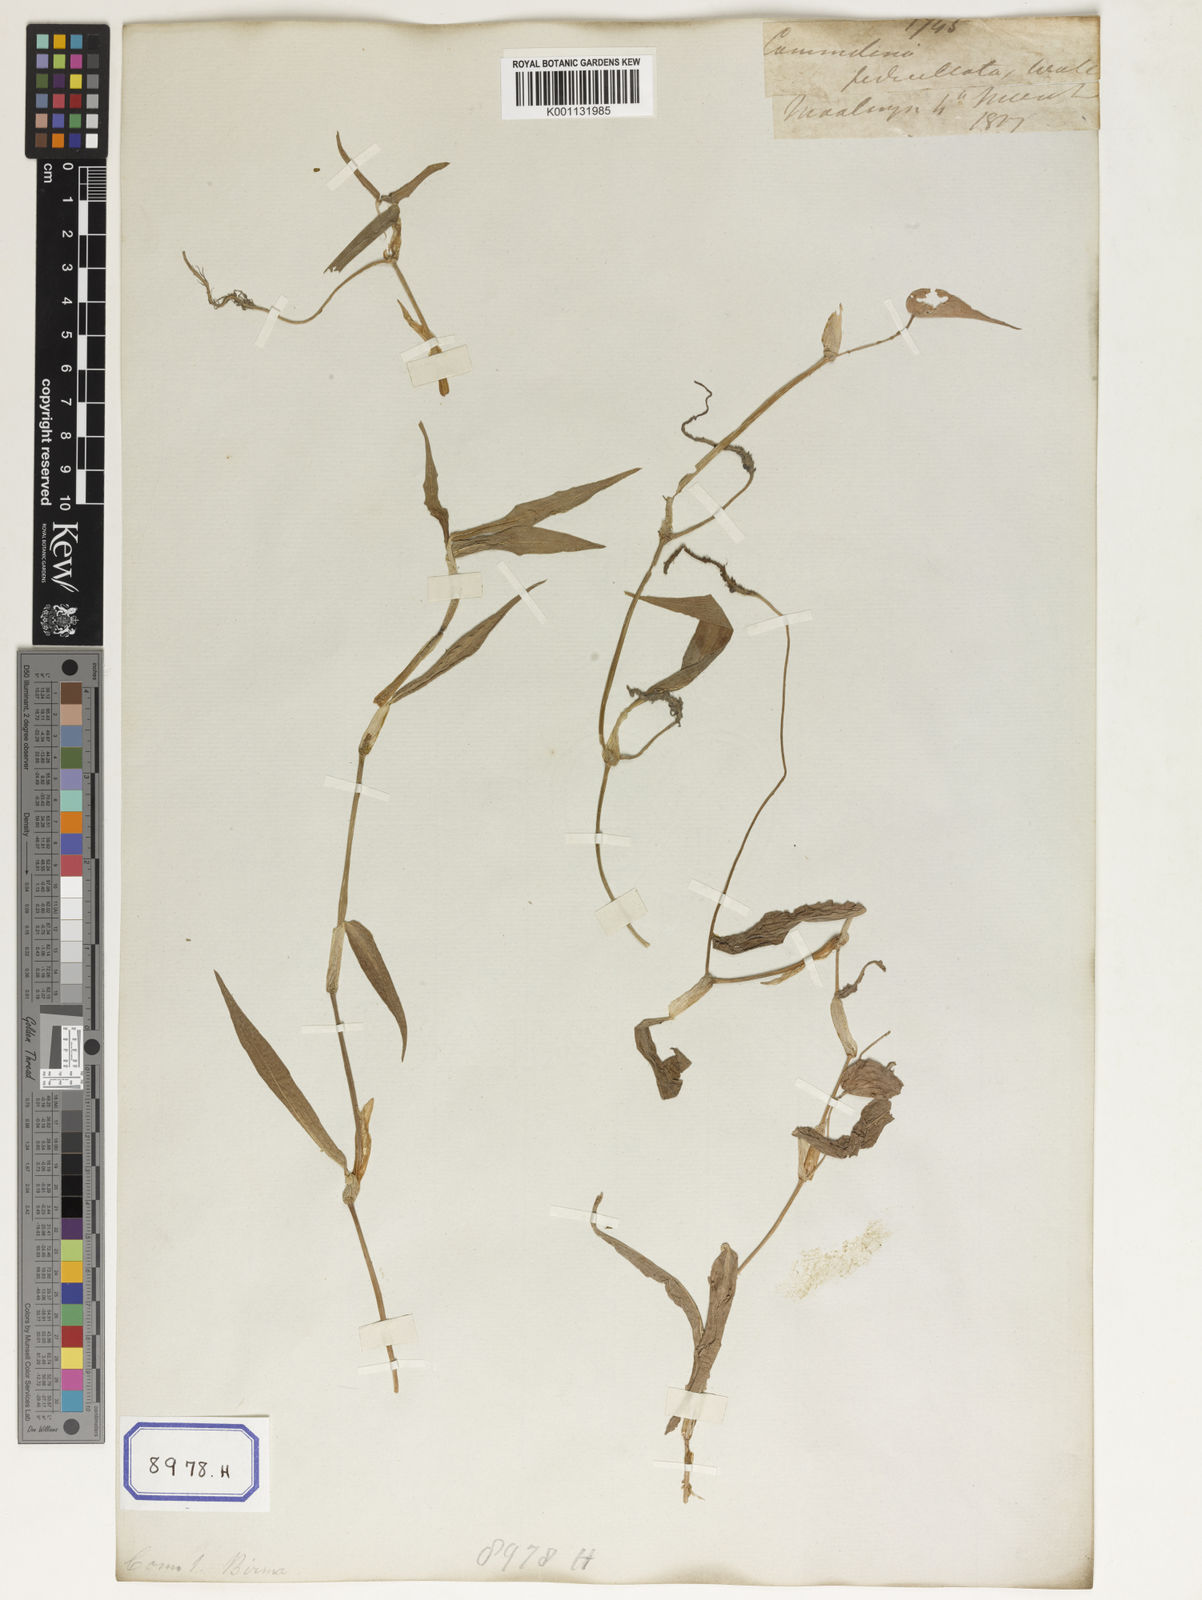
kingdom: Plantae
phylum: Tracheophyta
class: Liliopsida
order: Commelinales
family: Commelinaceae
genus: Commelina
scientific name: Commelina communis
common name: Asiatic dayflower
